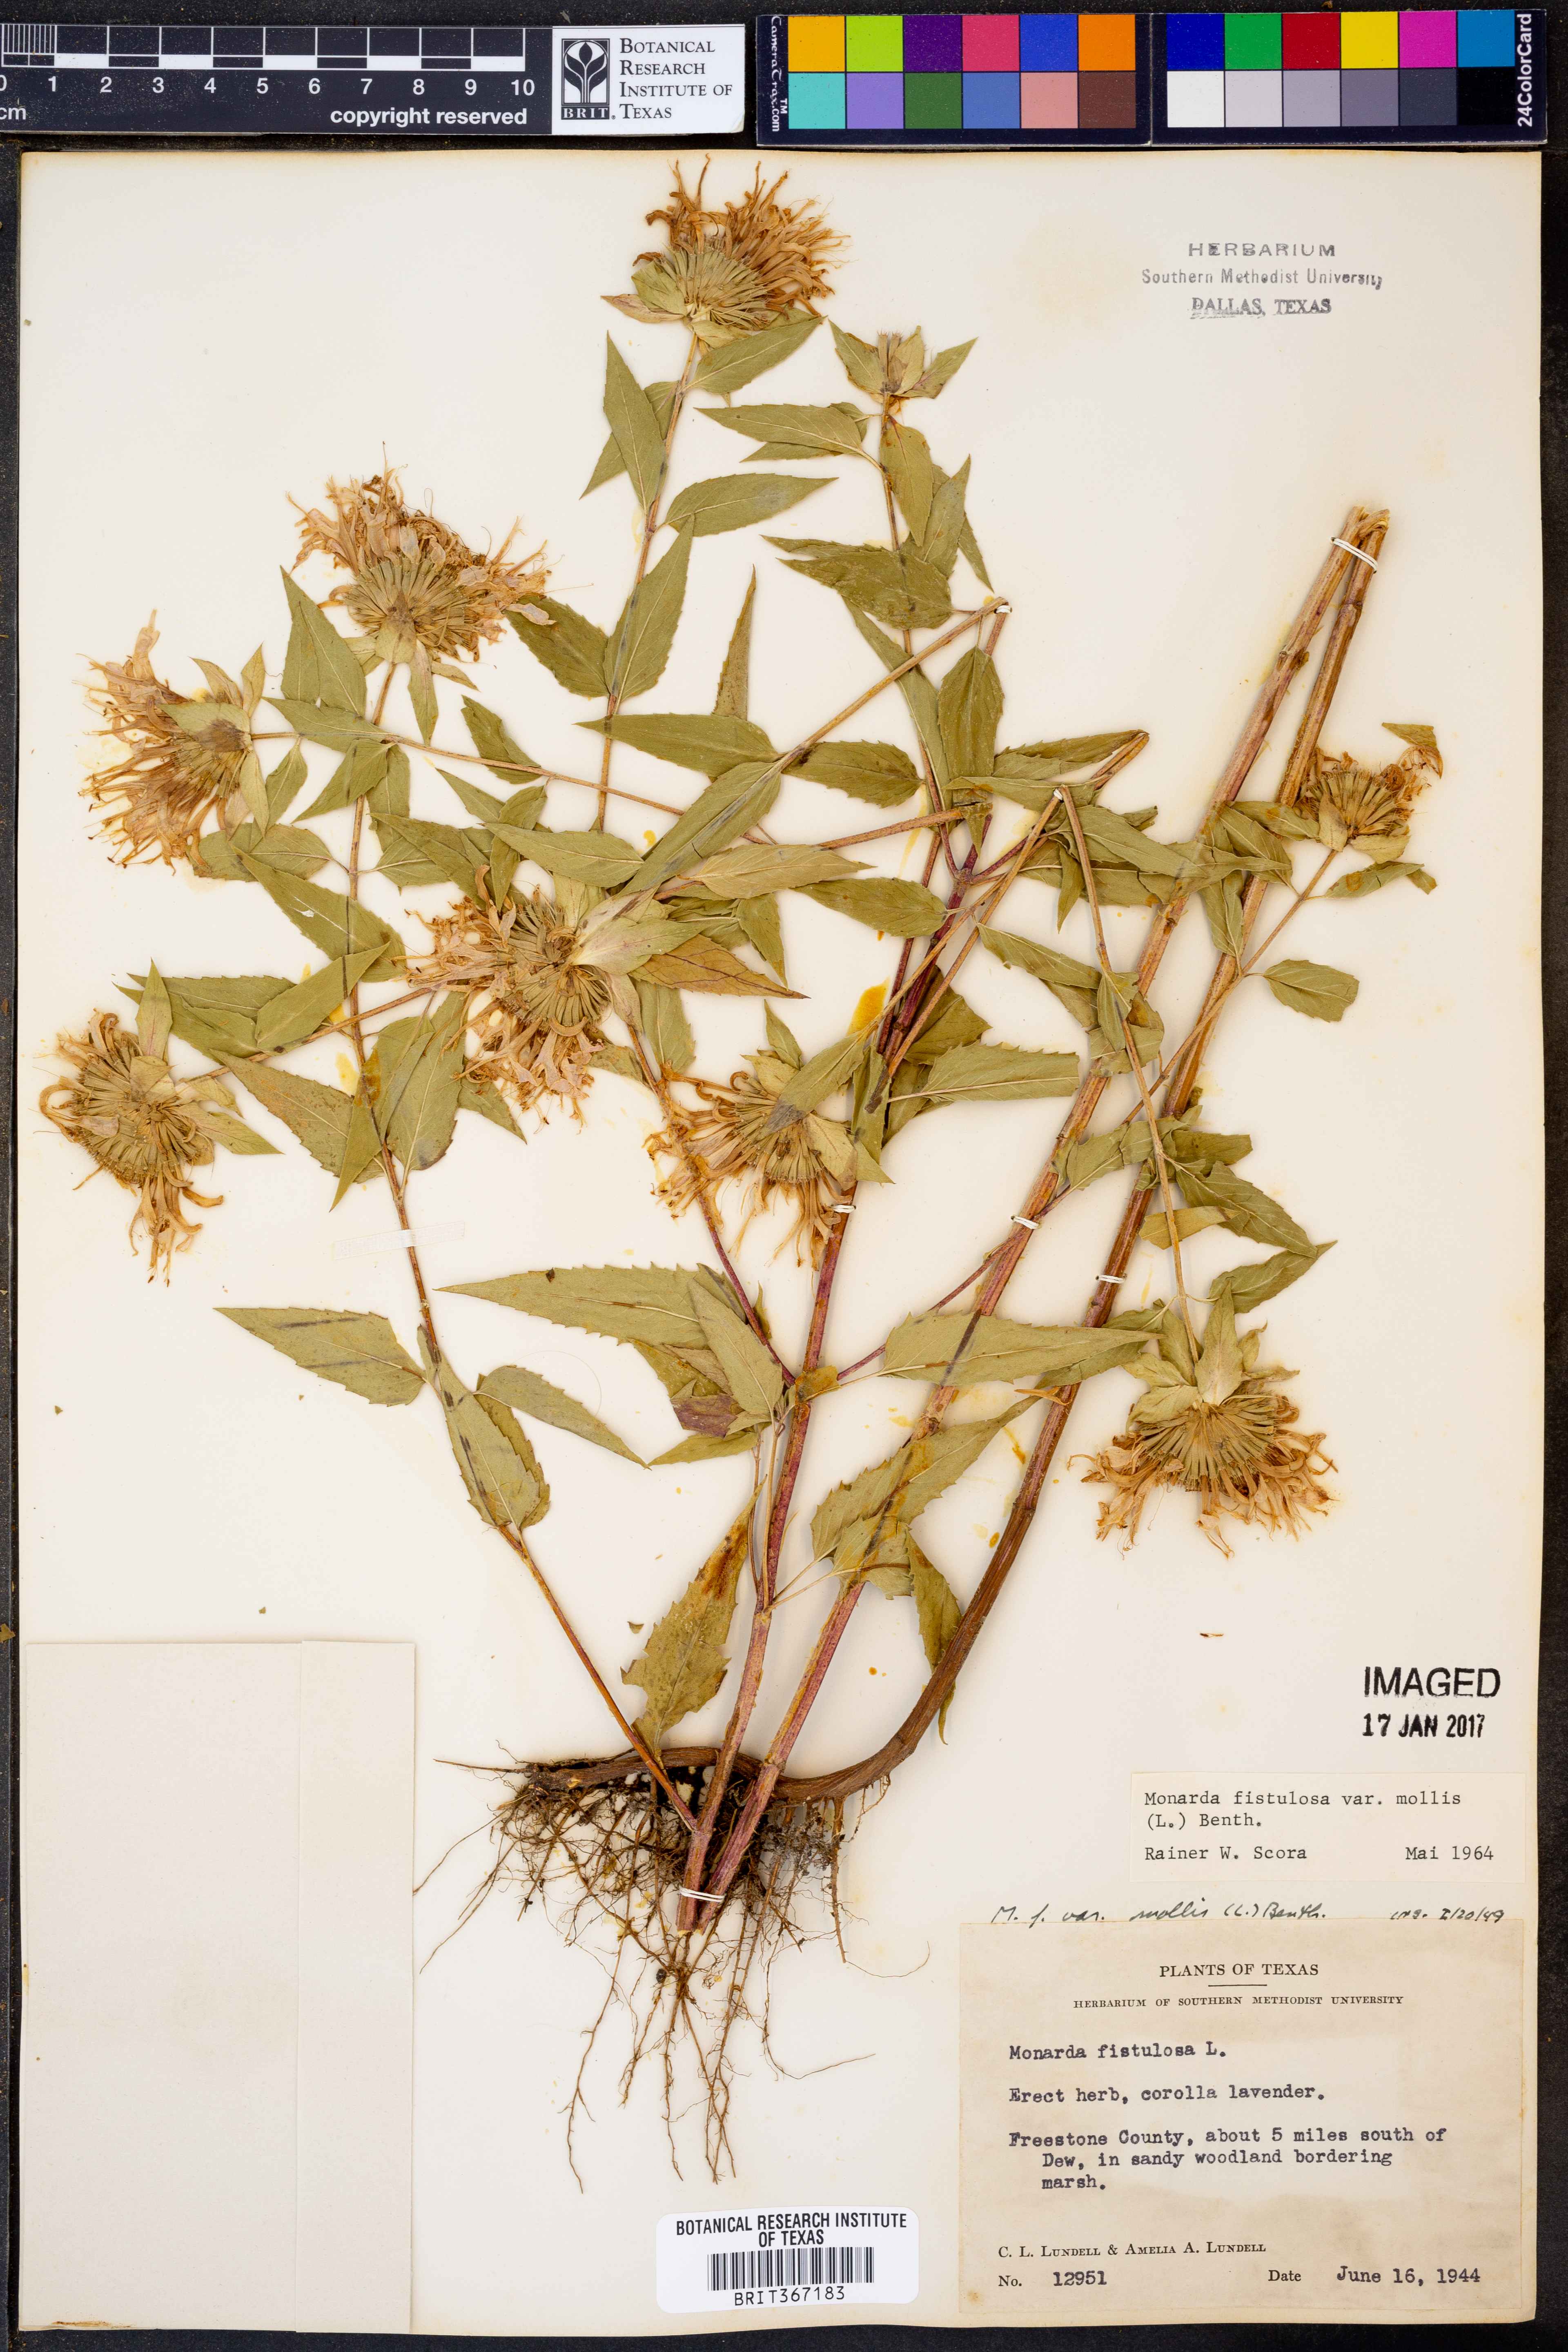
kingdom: Plantae
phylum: Tracheophyta
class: Magnoliopsida
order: Lamiales
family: Lamiaceae
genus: Monarda
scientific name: Monarda fistulosa
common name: Purple beebalm
